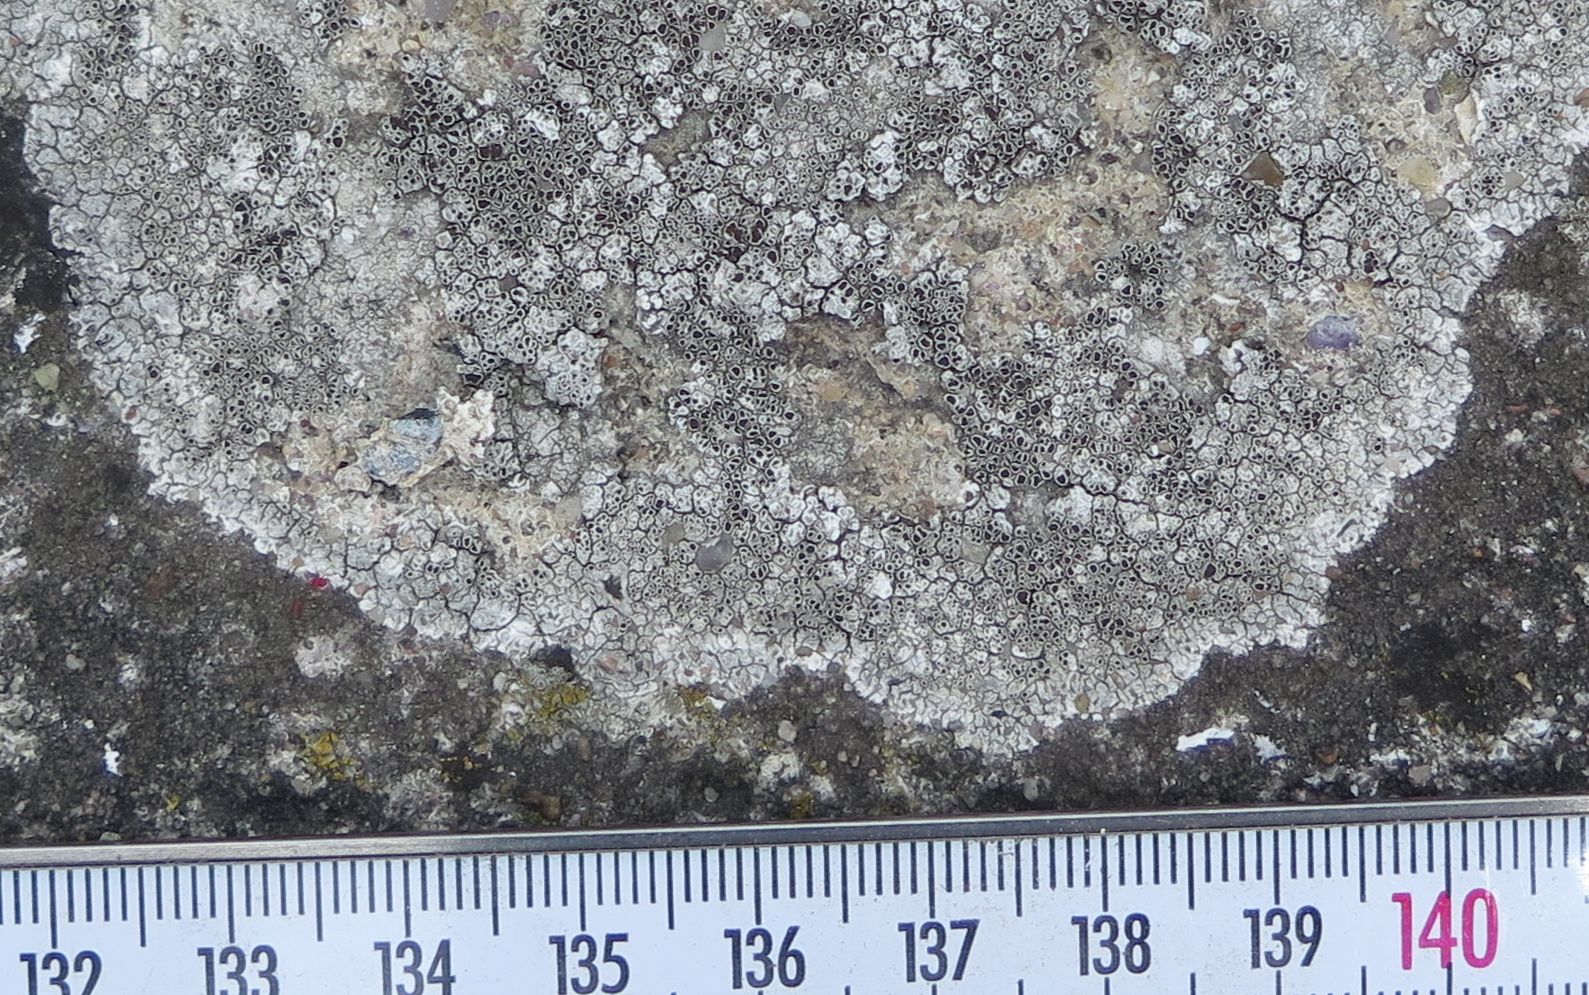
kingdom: Fungi
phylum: Ascomycota
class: Lecanoromycetes
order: Lecanorales
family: Lecanoraceae
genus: Lecanora
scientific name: Lecanora campestris
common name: mur-kantskivelav
